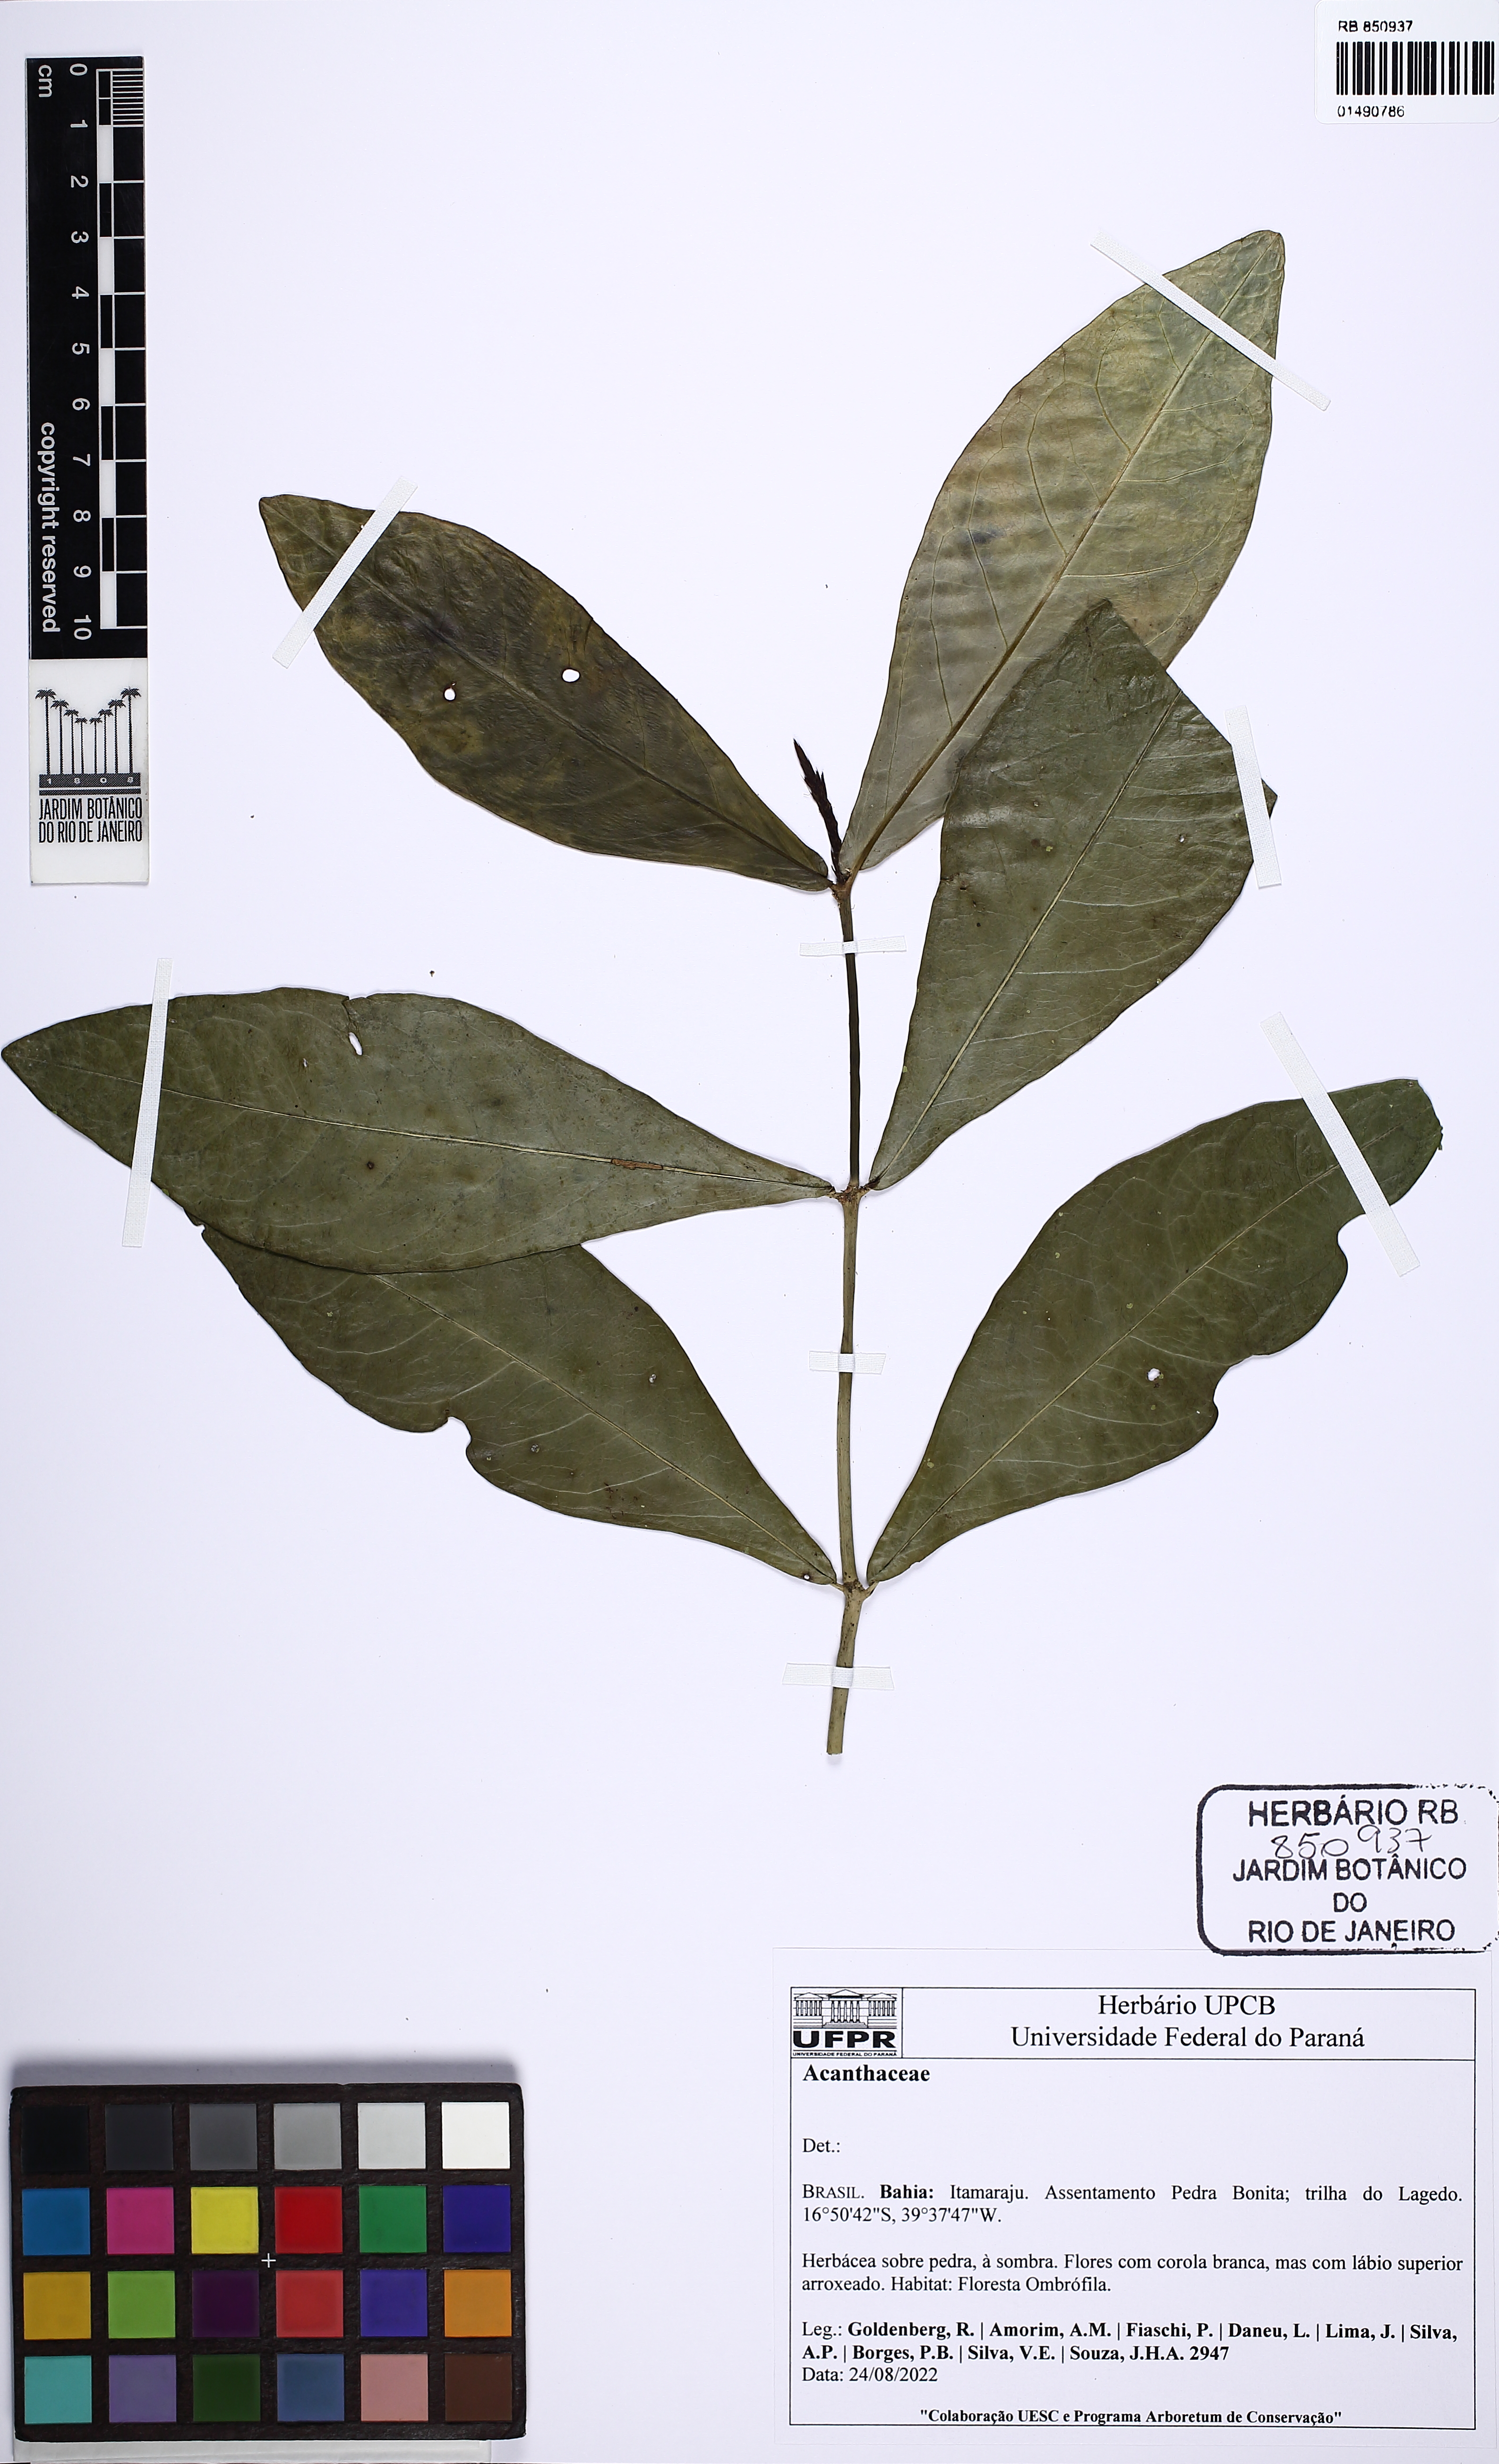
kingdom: Plantae
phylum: Tracheophyta
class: Magnoliopsida
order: Lamiales
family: Acanthaceae
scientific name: Acanthaceae
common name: Acanthaceae
